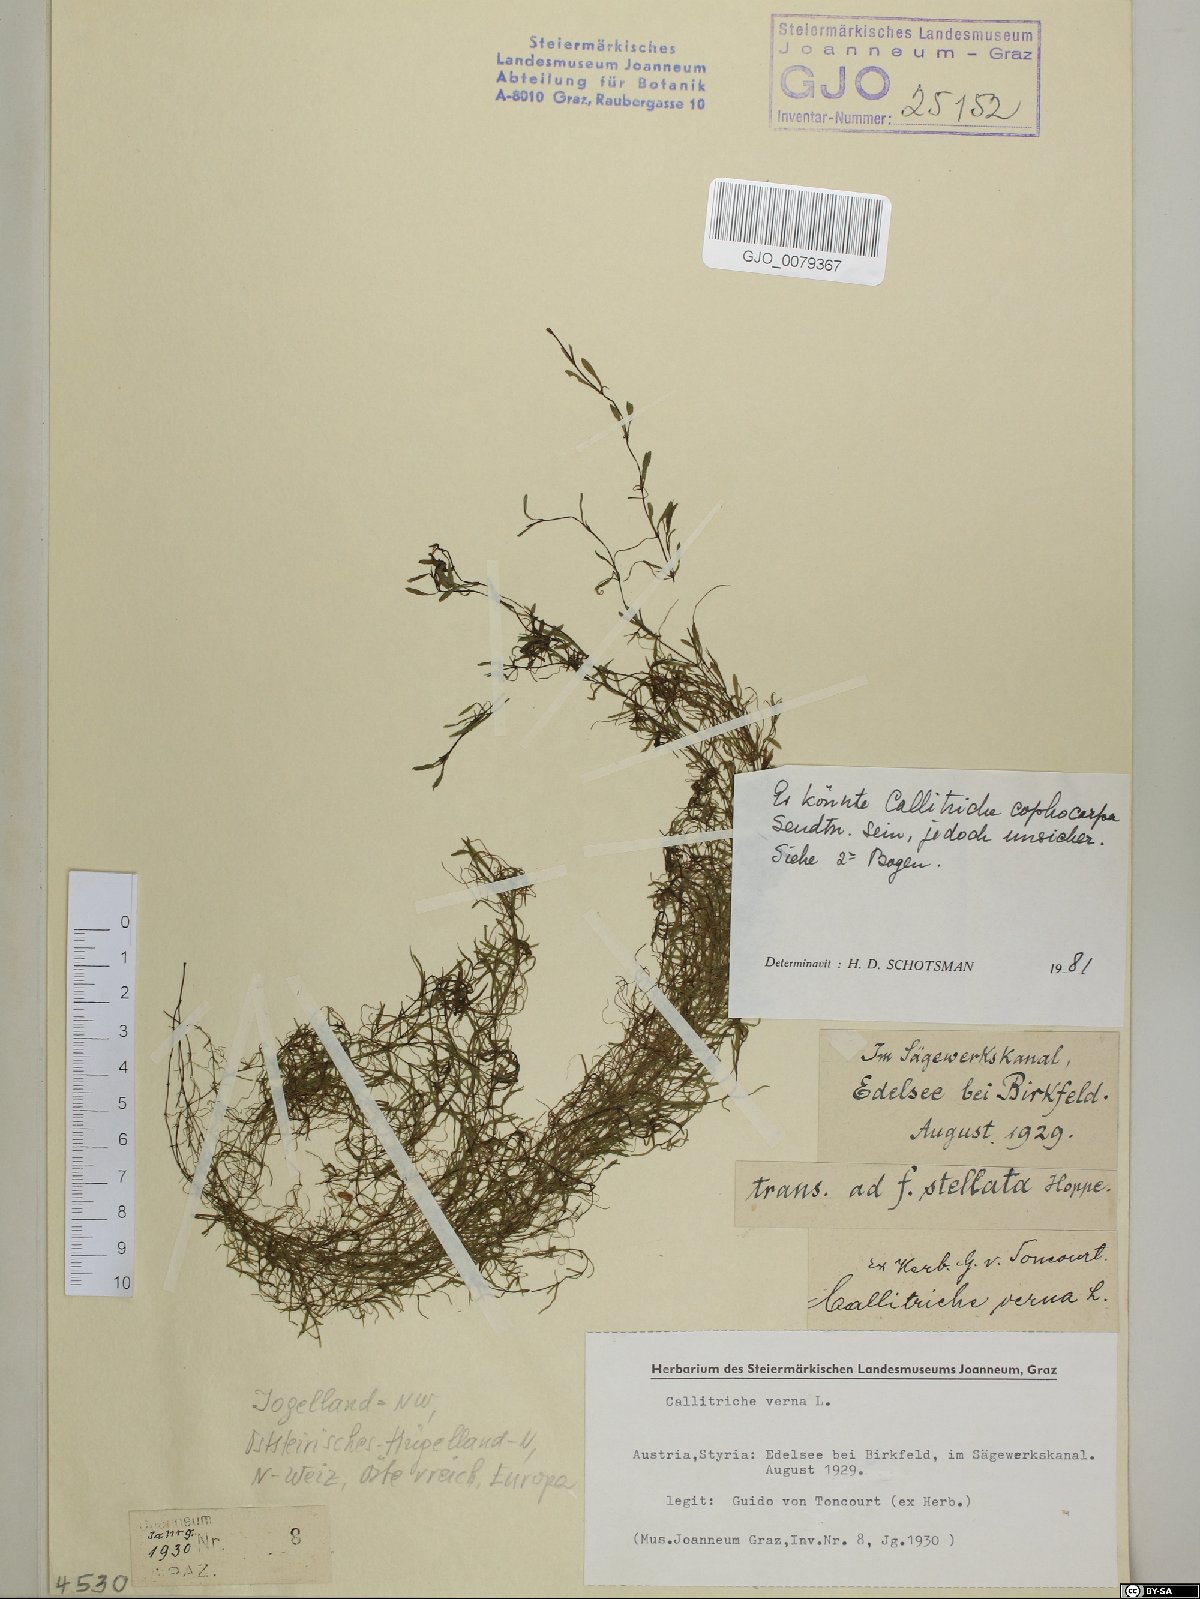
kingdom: Plantae
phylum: Tracheophyta
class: Magnoliopsida
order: Lamiales
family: Plantaginaceae
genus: Callitriche
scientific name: Callitriche cophocarpa
